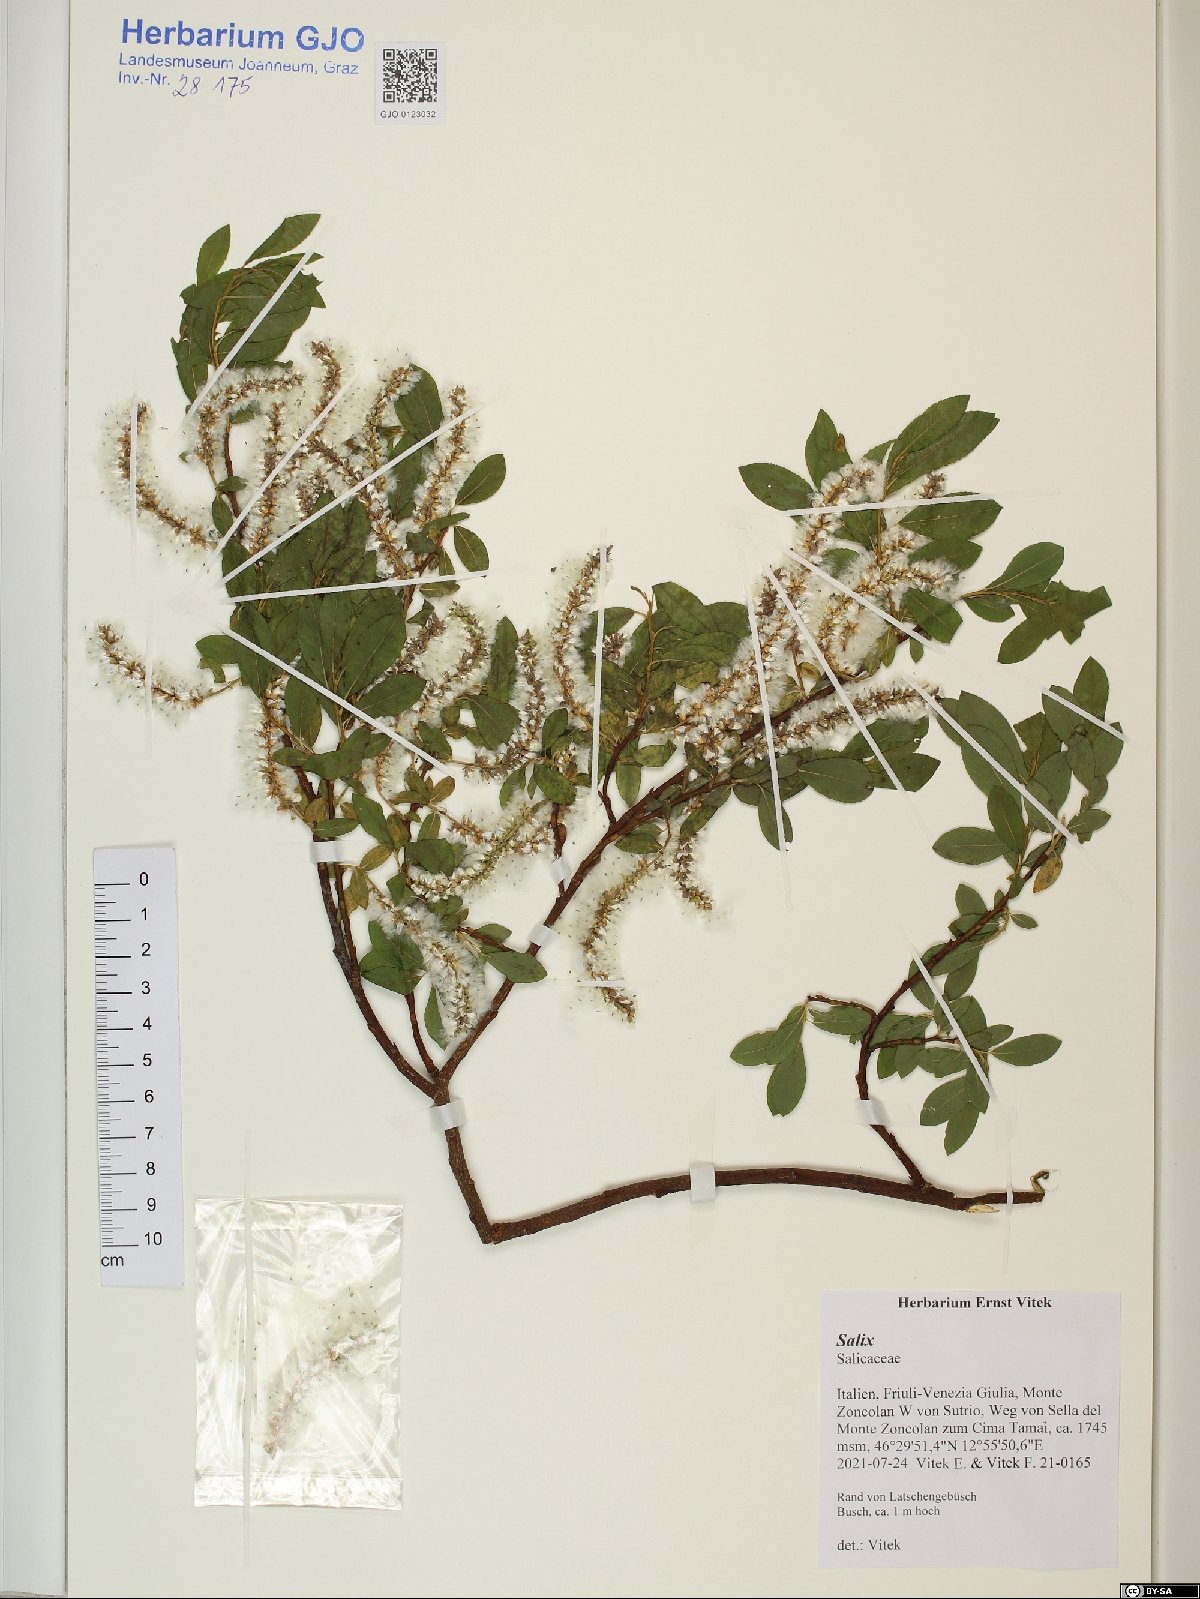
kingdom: Plantae
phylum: Tracheophyta
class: Magnoliopsida
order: Malpighiales
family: Salicaceae
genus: Salix
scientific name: Salix
